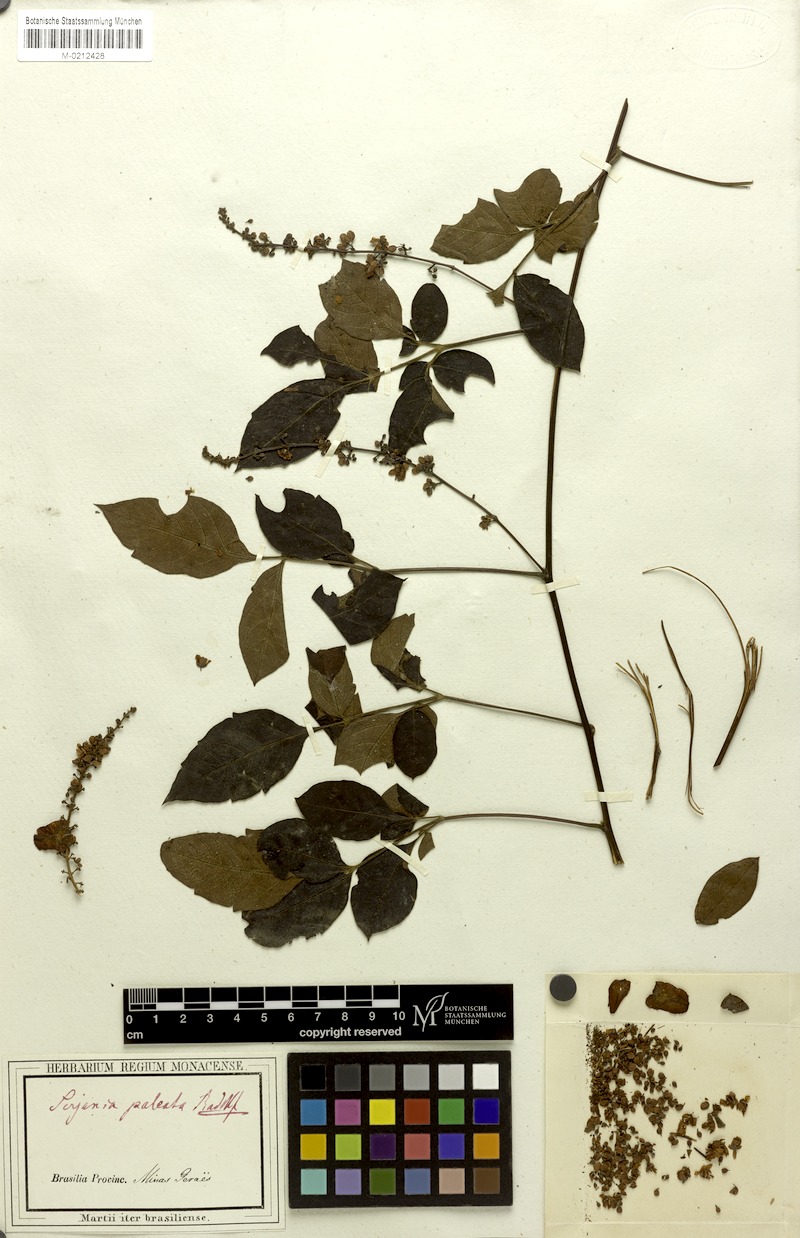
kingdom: Plantae
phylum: Tracheophyta
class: Magnoliopsida
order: Sapindales
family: Sapindaceae
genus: Serjania
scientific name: Serjania paleata
